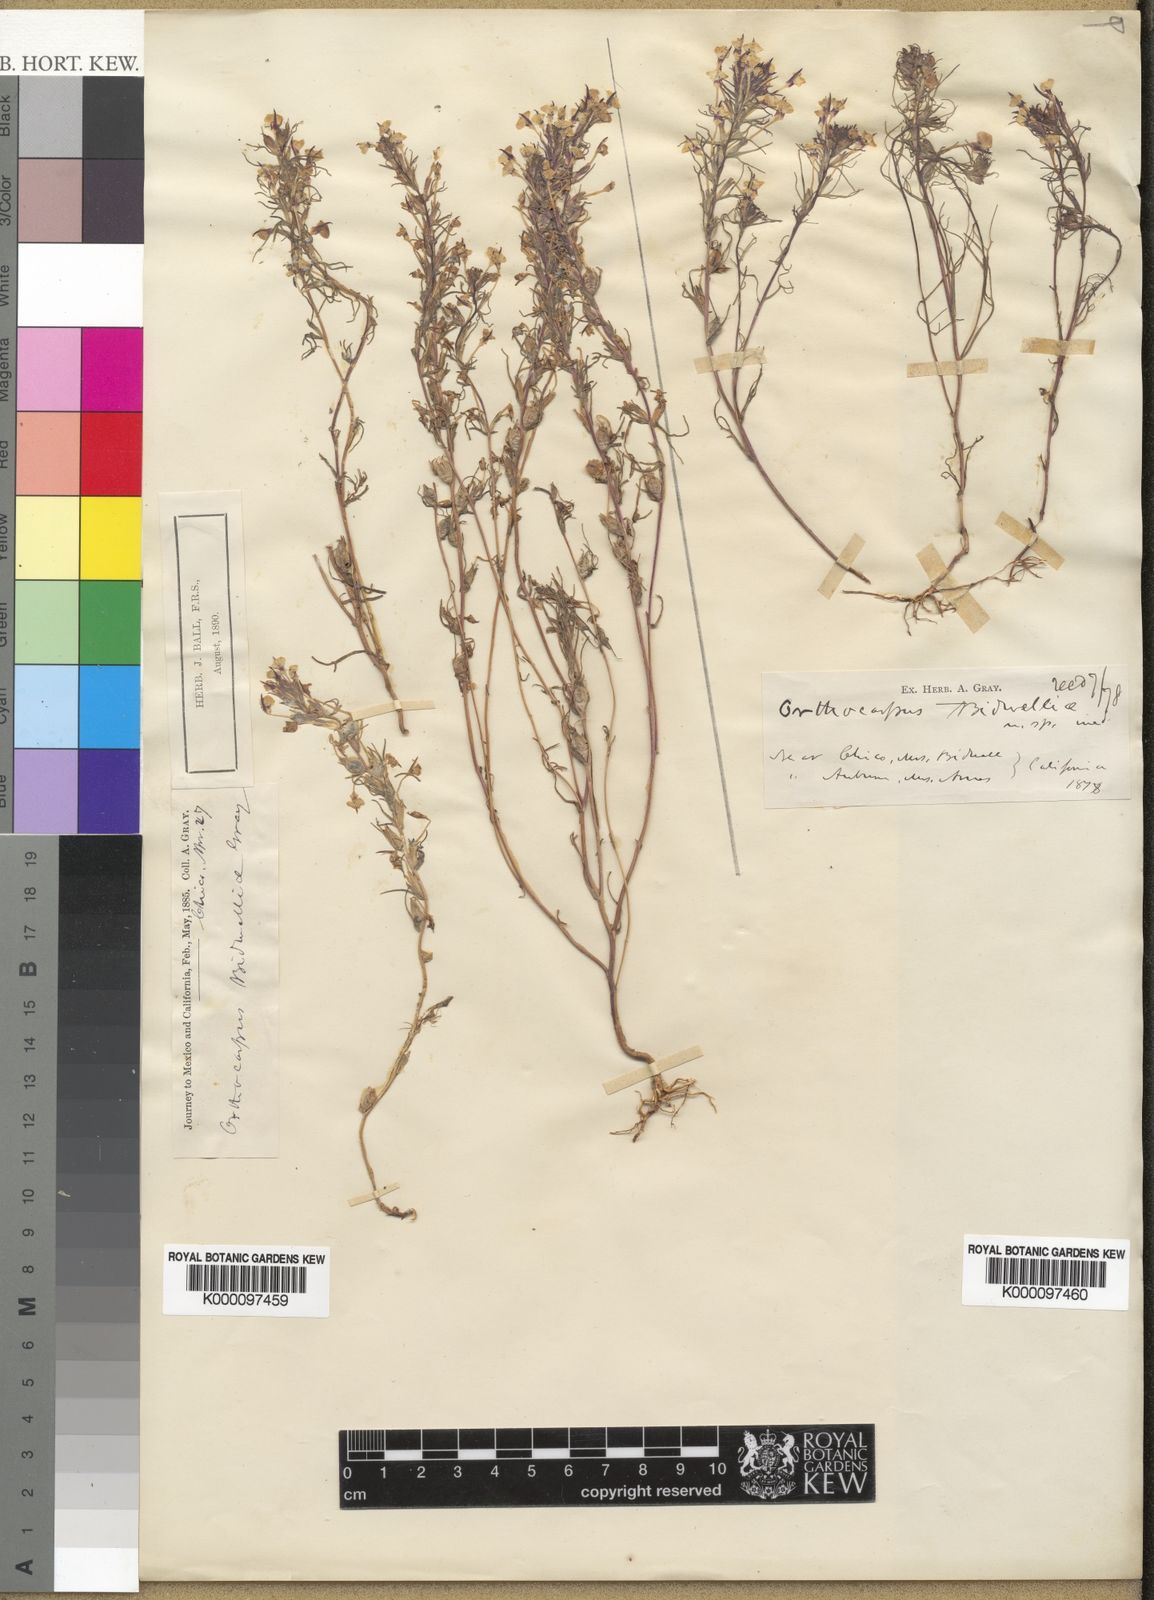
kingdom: Plantae
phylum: Tracheophyta
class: Magnoliopsida
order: Lamiales
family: Orobanchaceae
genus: Triphysaria
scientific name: Triphysaria eriantha
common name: Johnny-tuck
